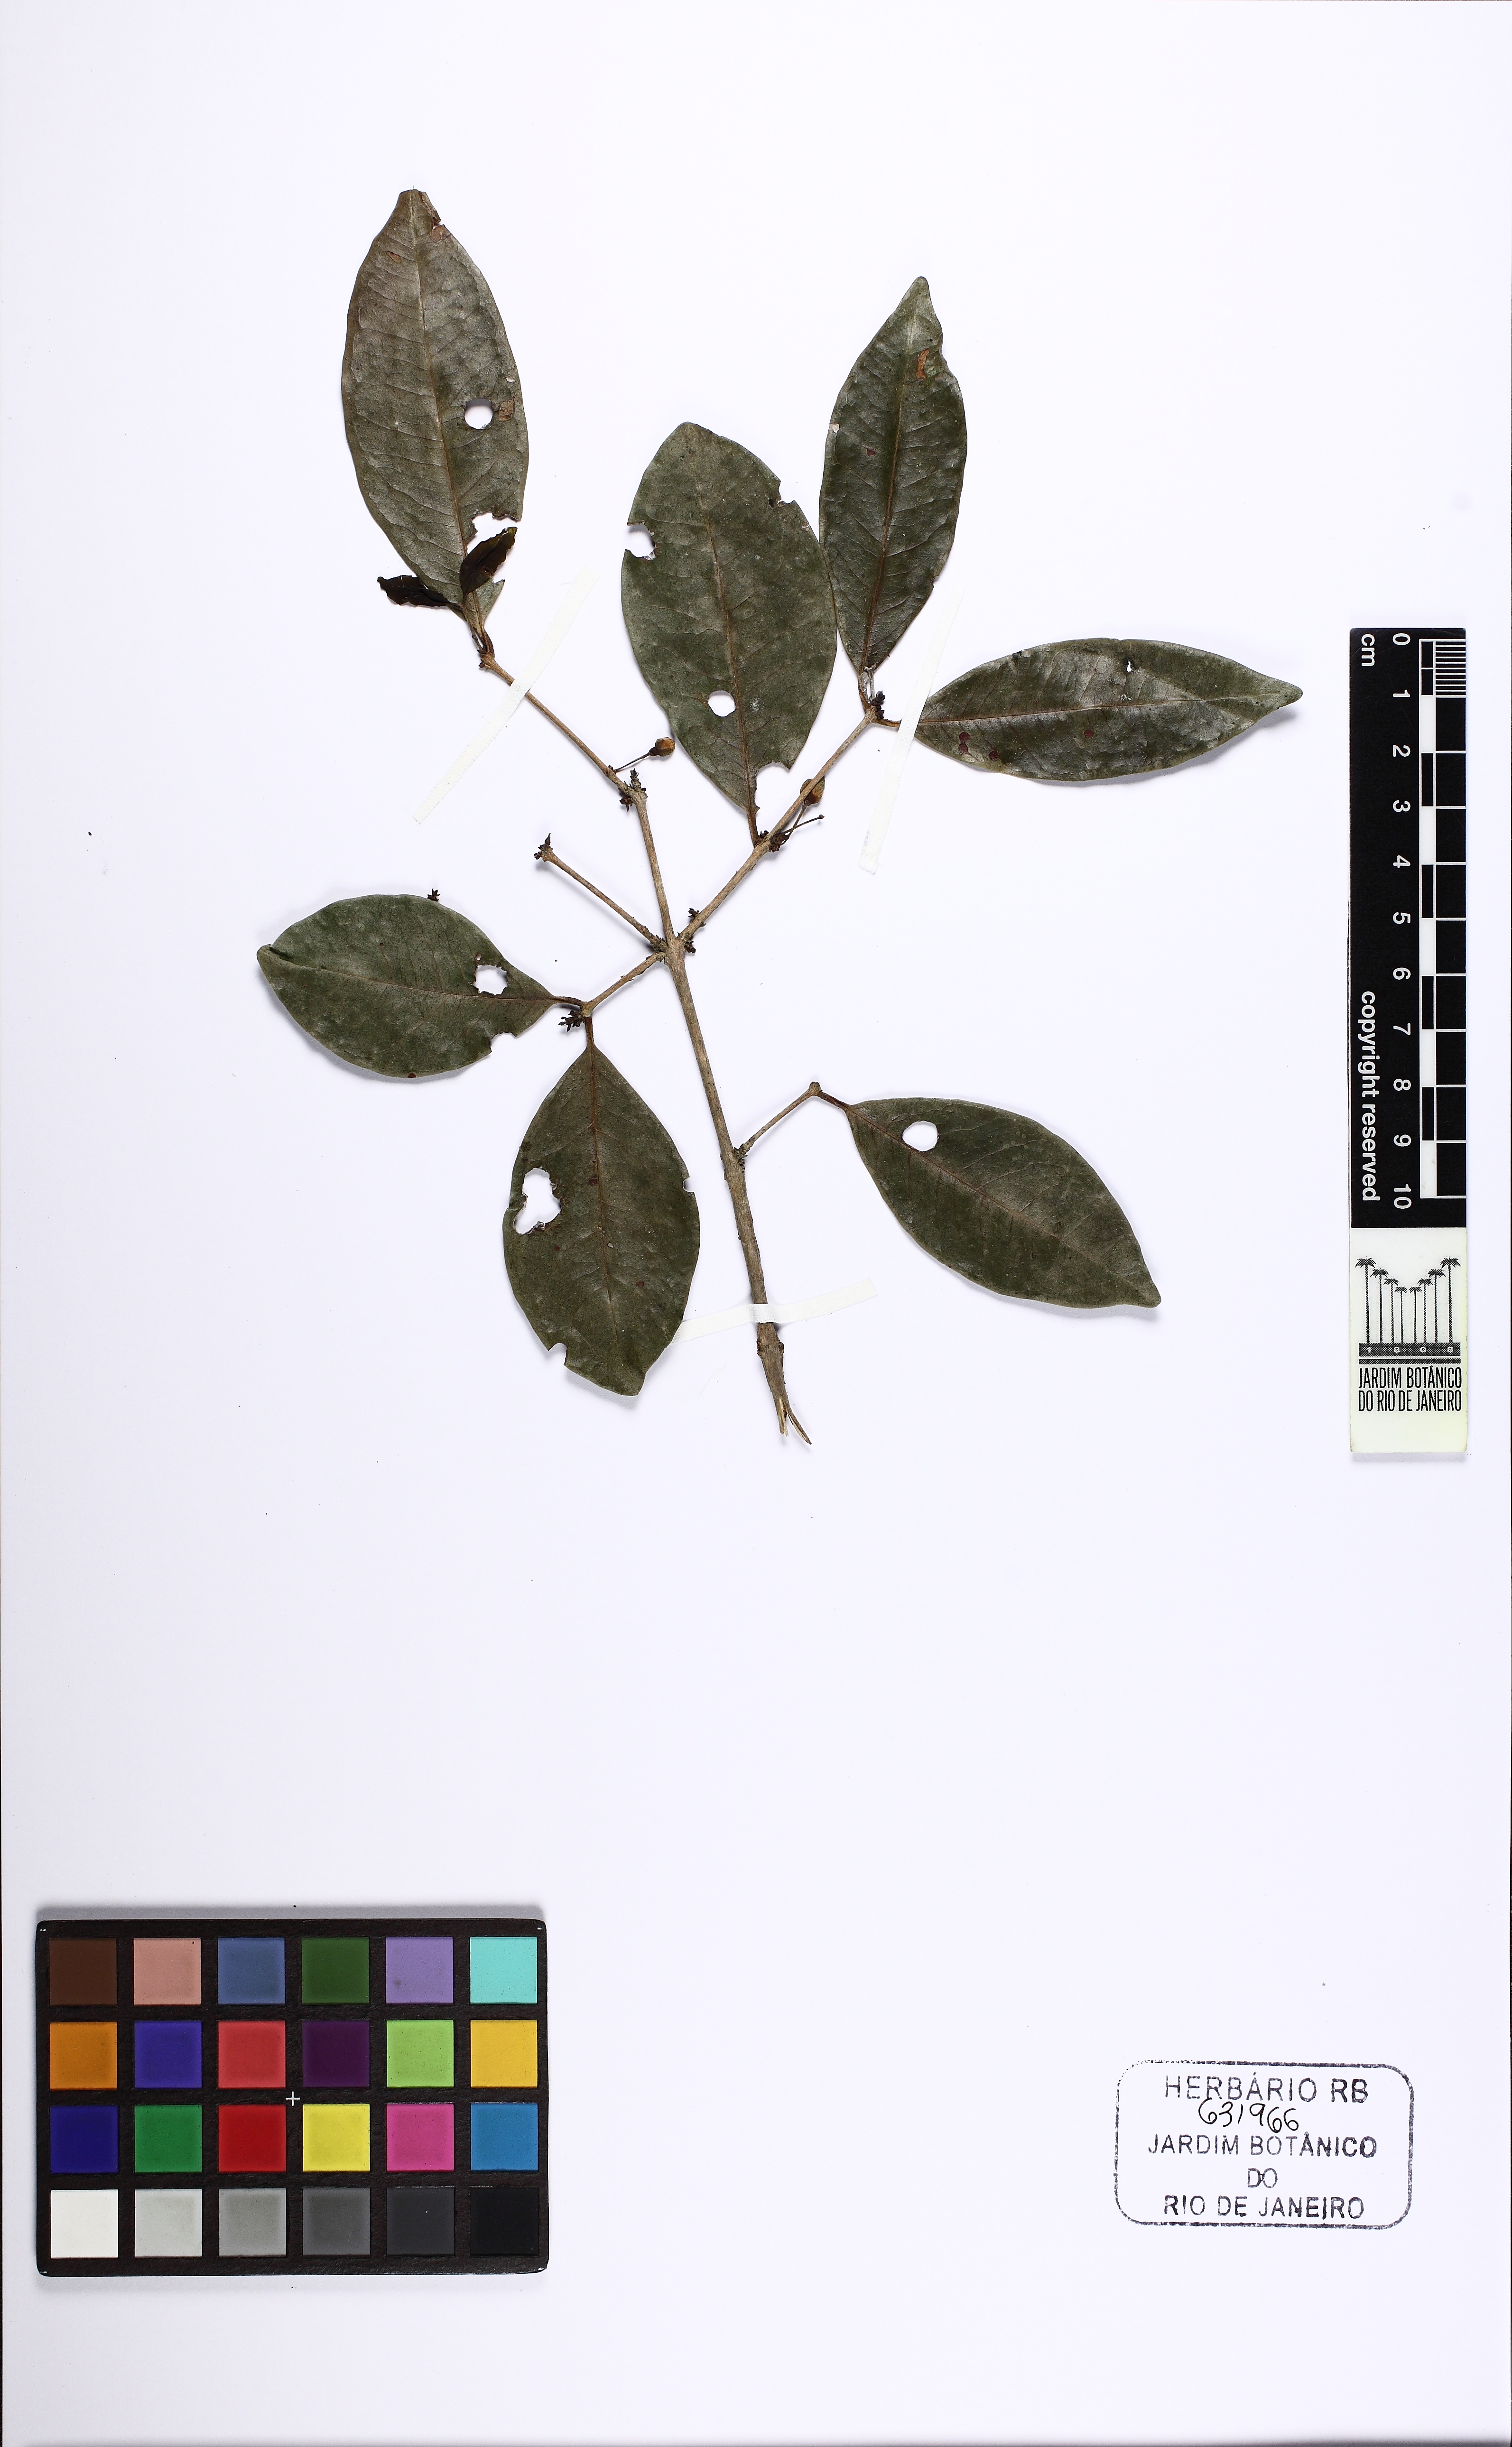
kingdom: Plantae
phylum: Tracheophyta
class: Magnoliopsida
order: Myrtales
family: Myrtaceae
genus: Eugenia
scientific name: Eugenia
